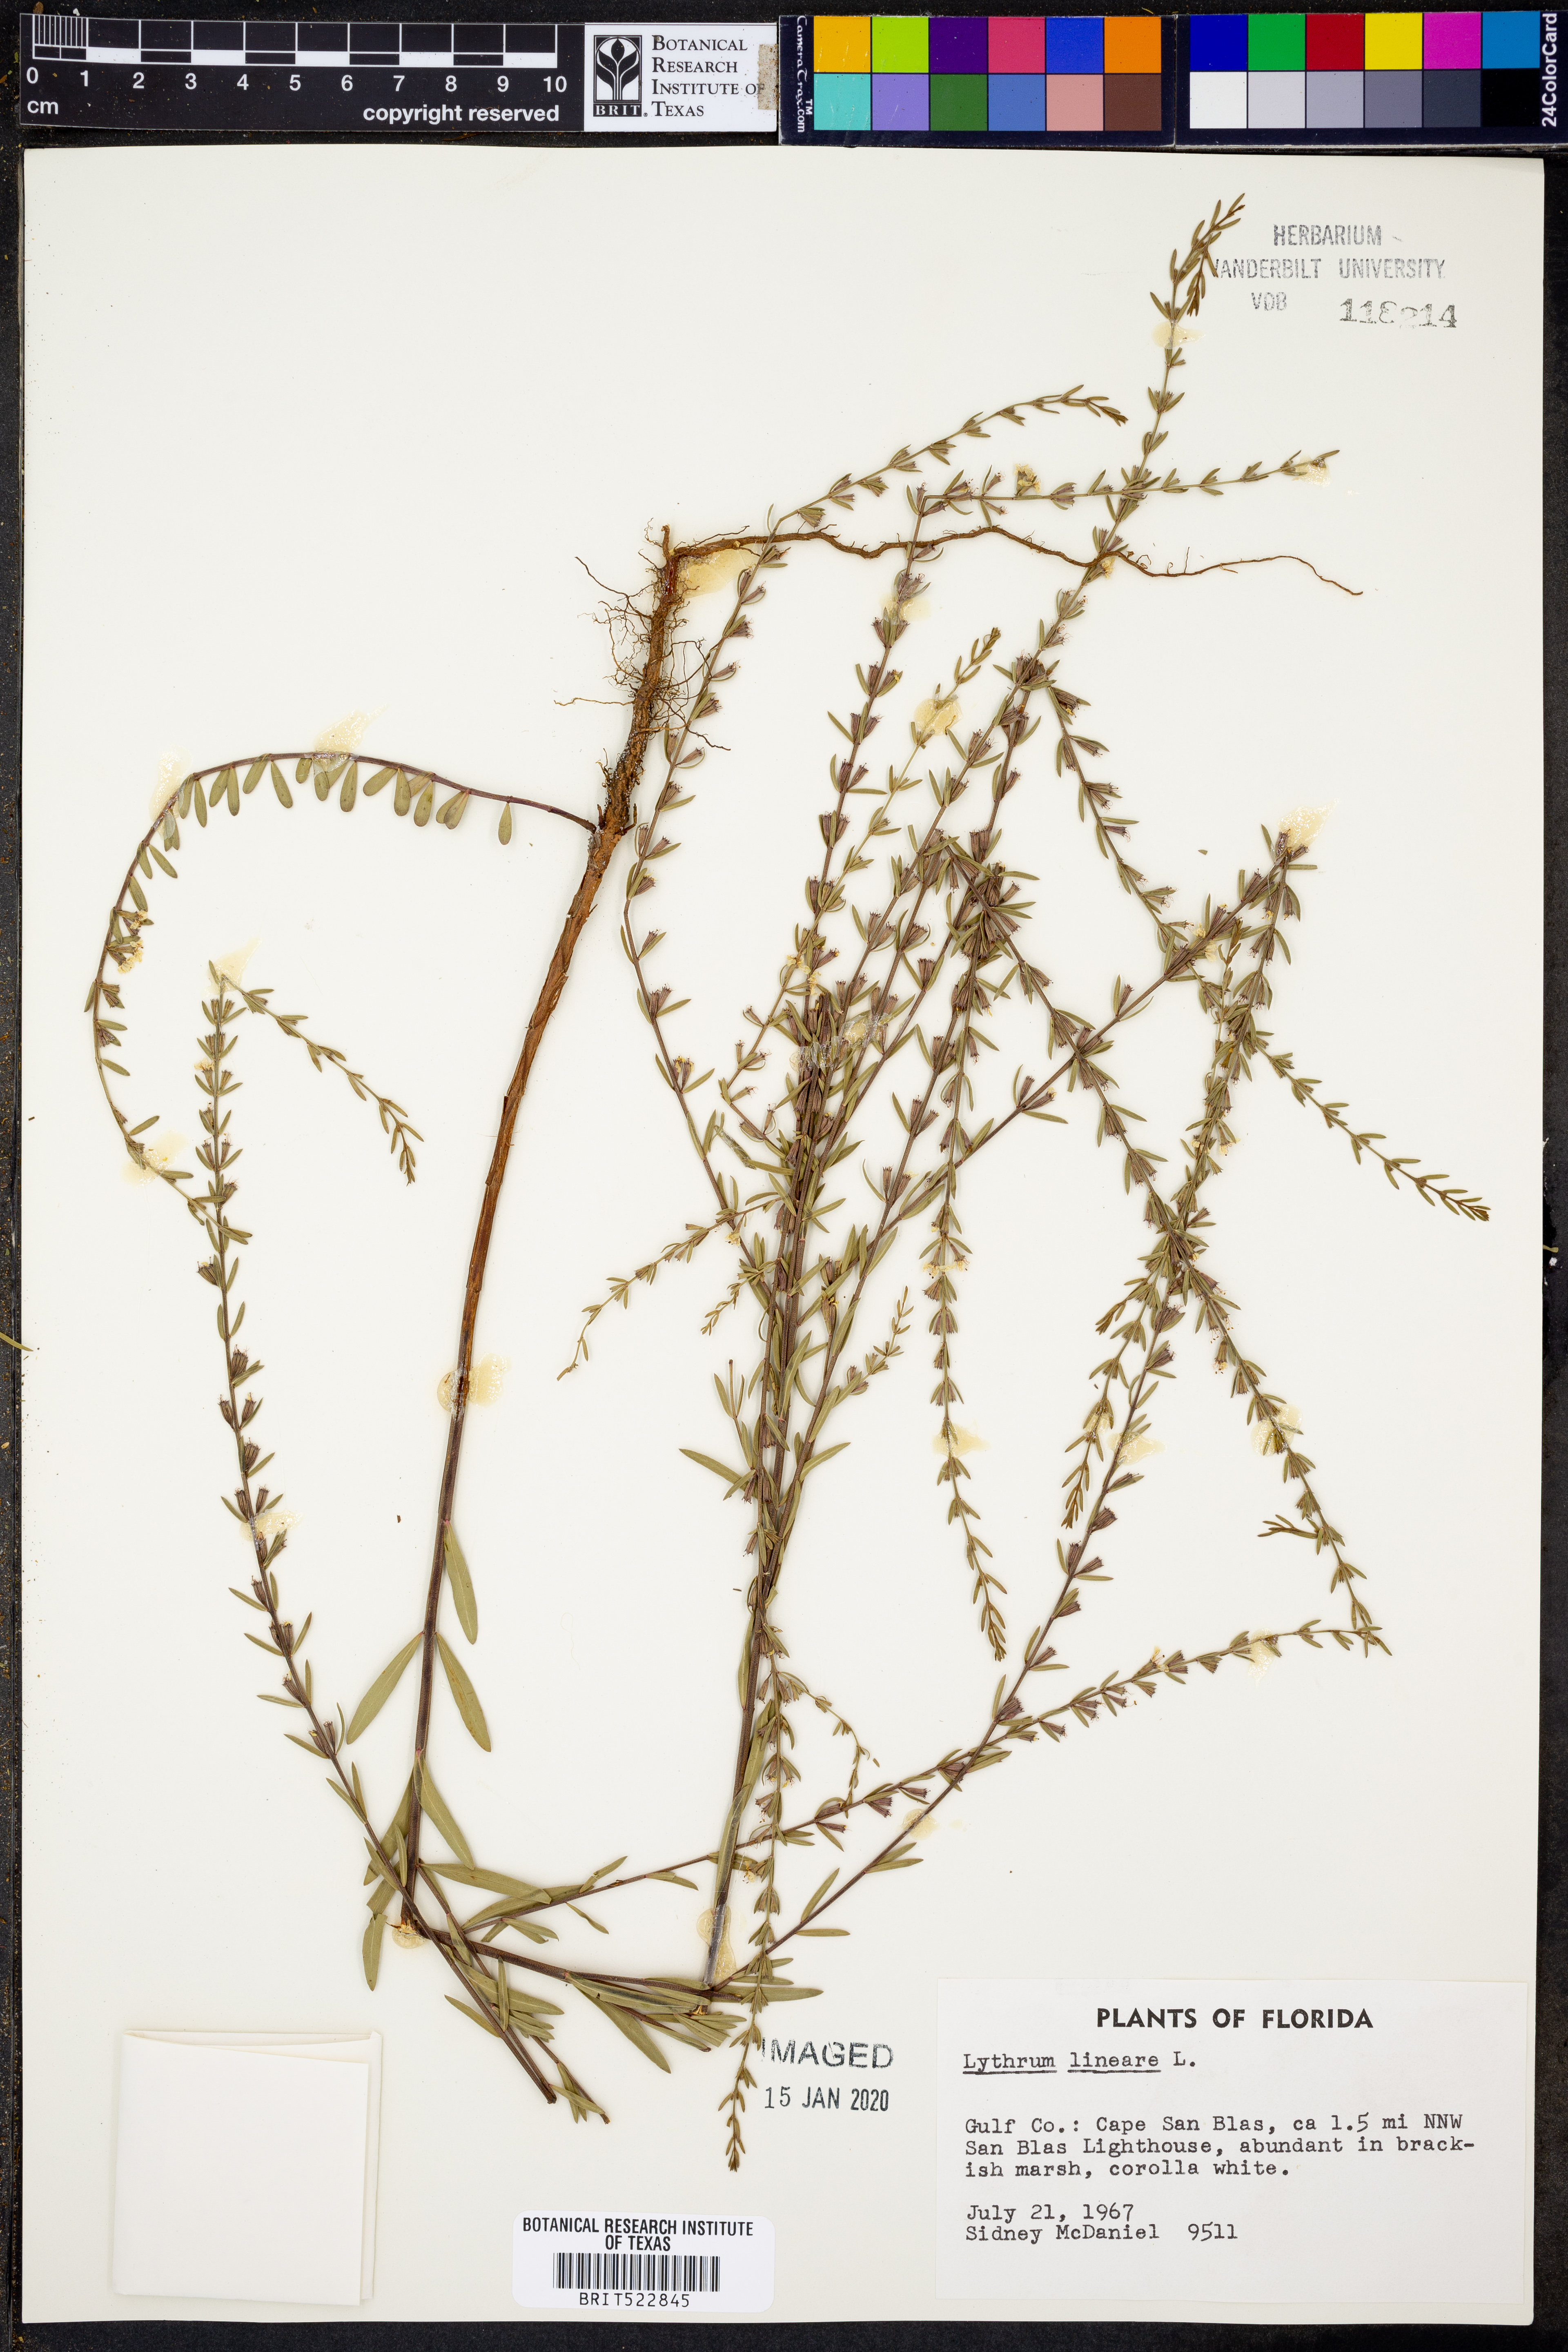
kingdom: Plantae
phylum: Tracheophyta
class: Magnoliopsida
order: Myrtales
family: Lythraceae
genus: Lythrum
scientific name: Lythrum lineare
